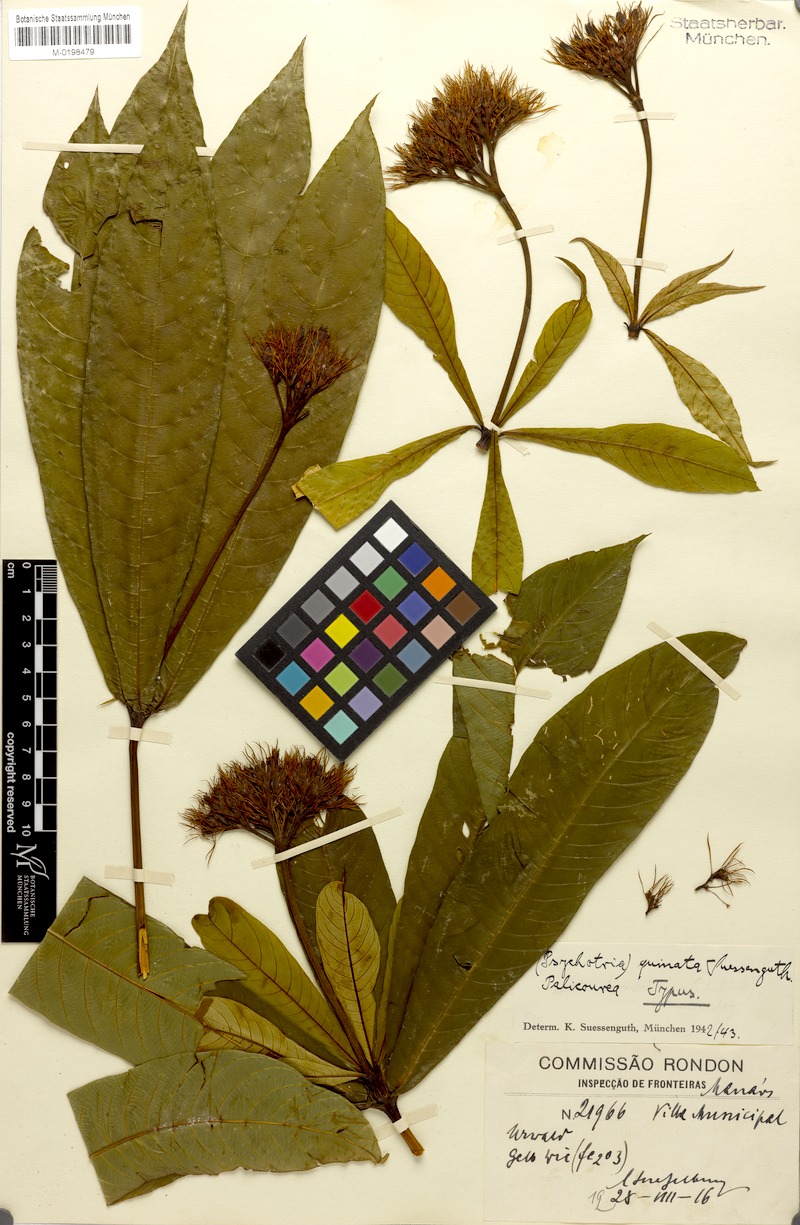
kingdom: Plantae
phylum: Tracheophyta
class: Magnoliopsida
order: Gentianales
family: Rubiaceae
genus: Palicourea
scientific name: Palicourea virens
